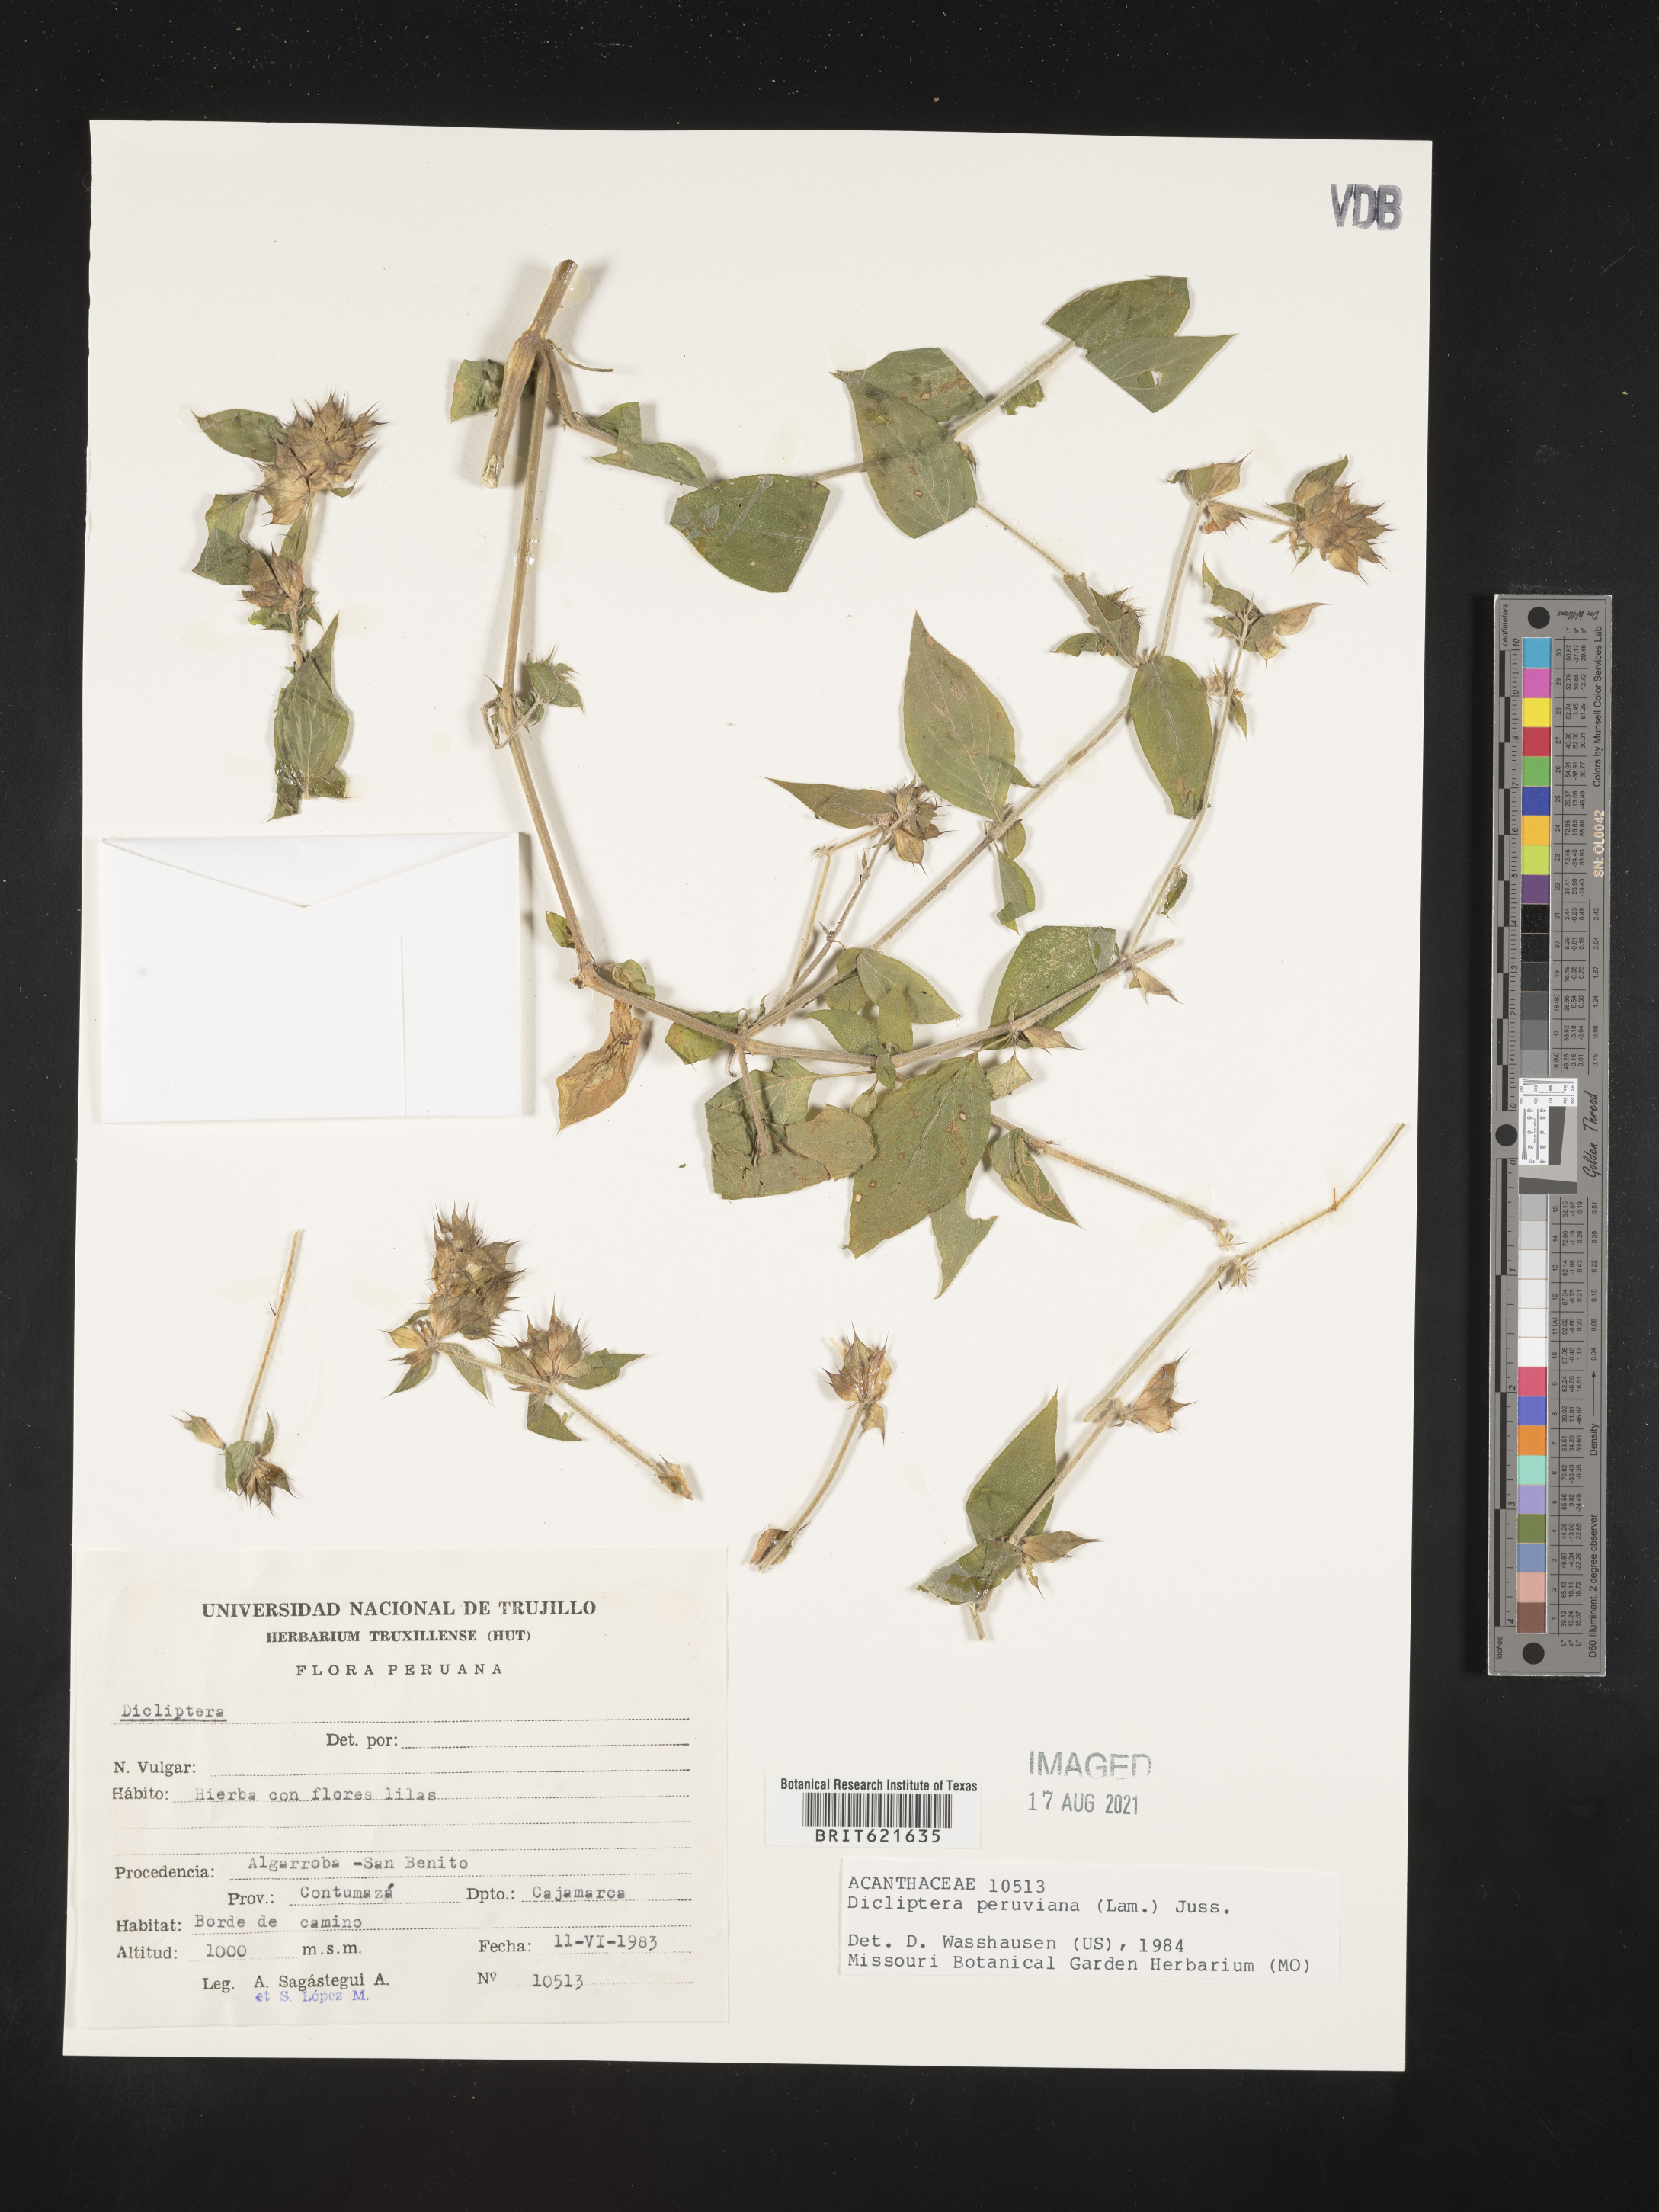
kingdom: Plantae
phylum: Tracheophyta
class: Magnoliopsida
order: Lamiales
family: Acanthaceae
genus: Dicliptera
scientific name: Dicliptera peruviana
